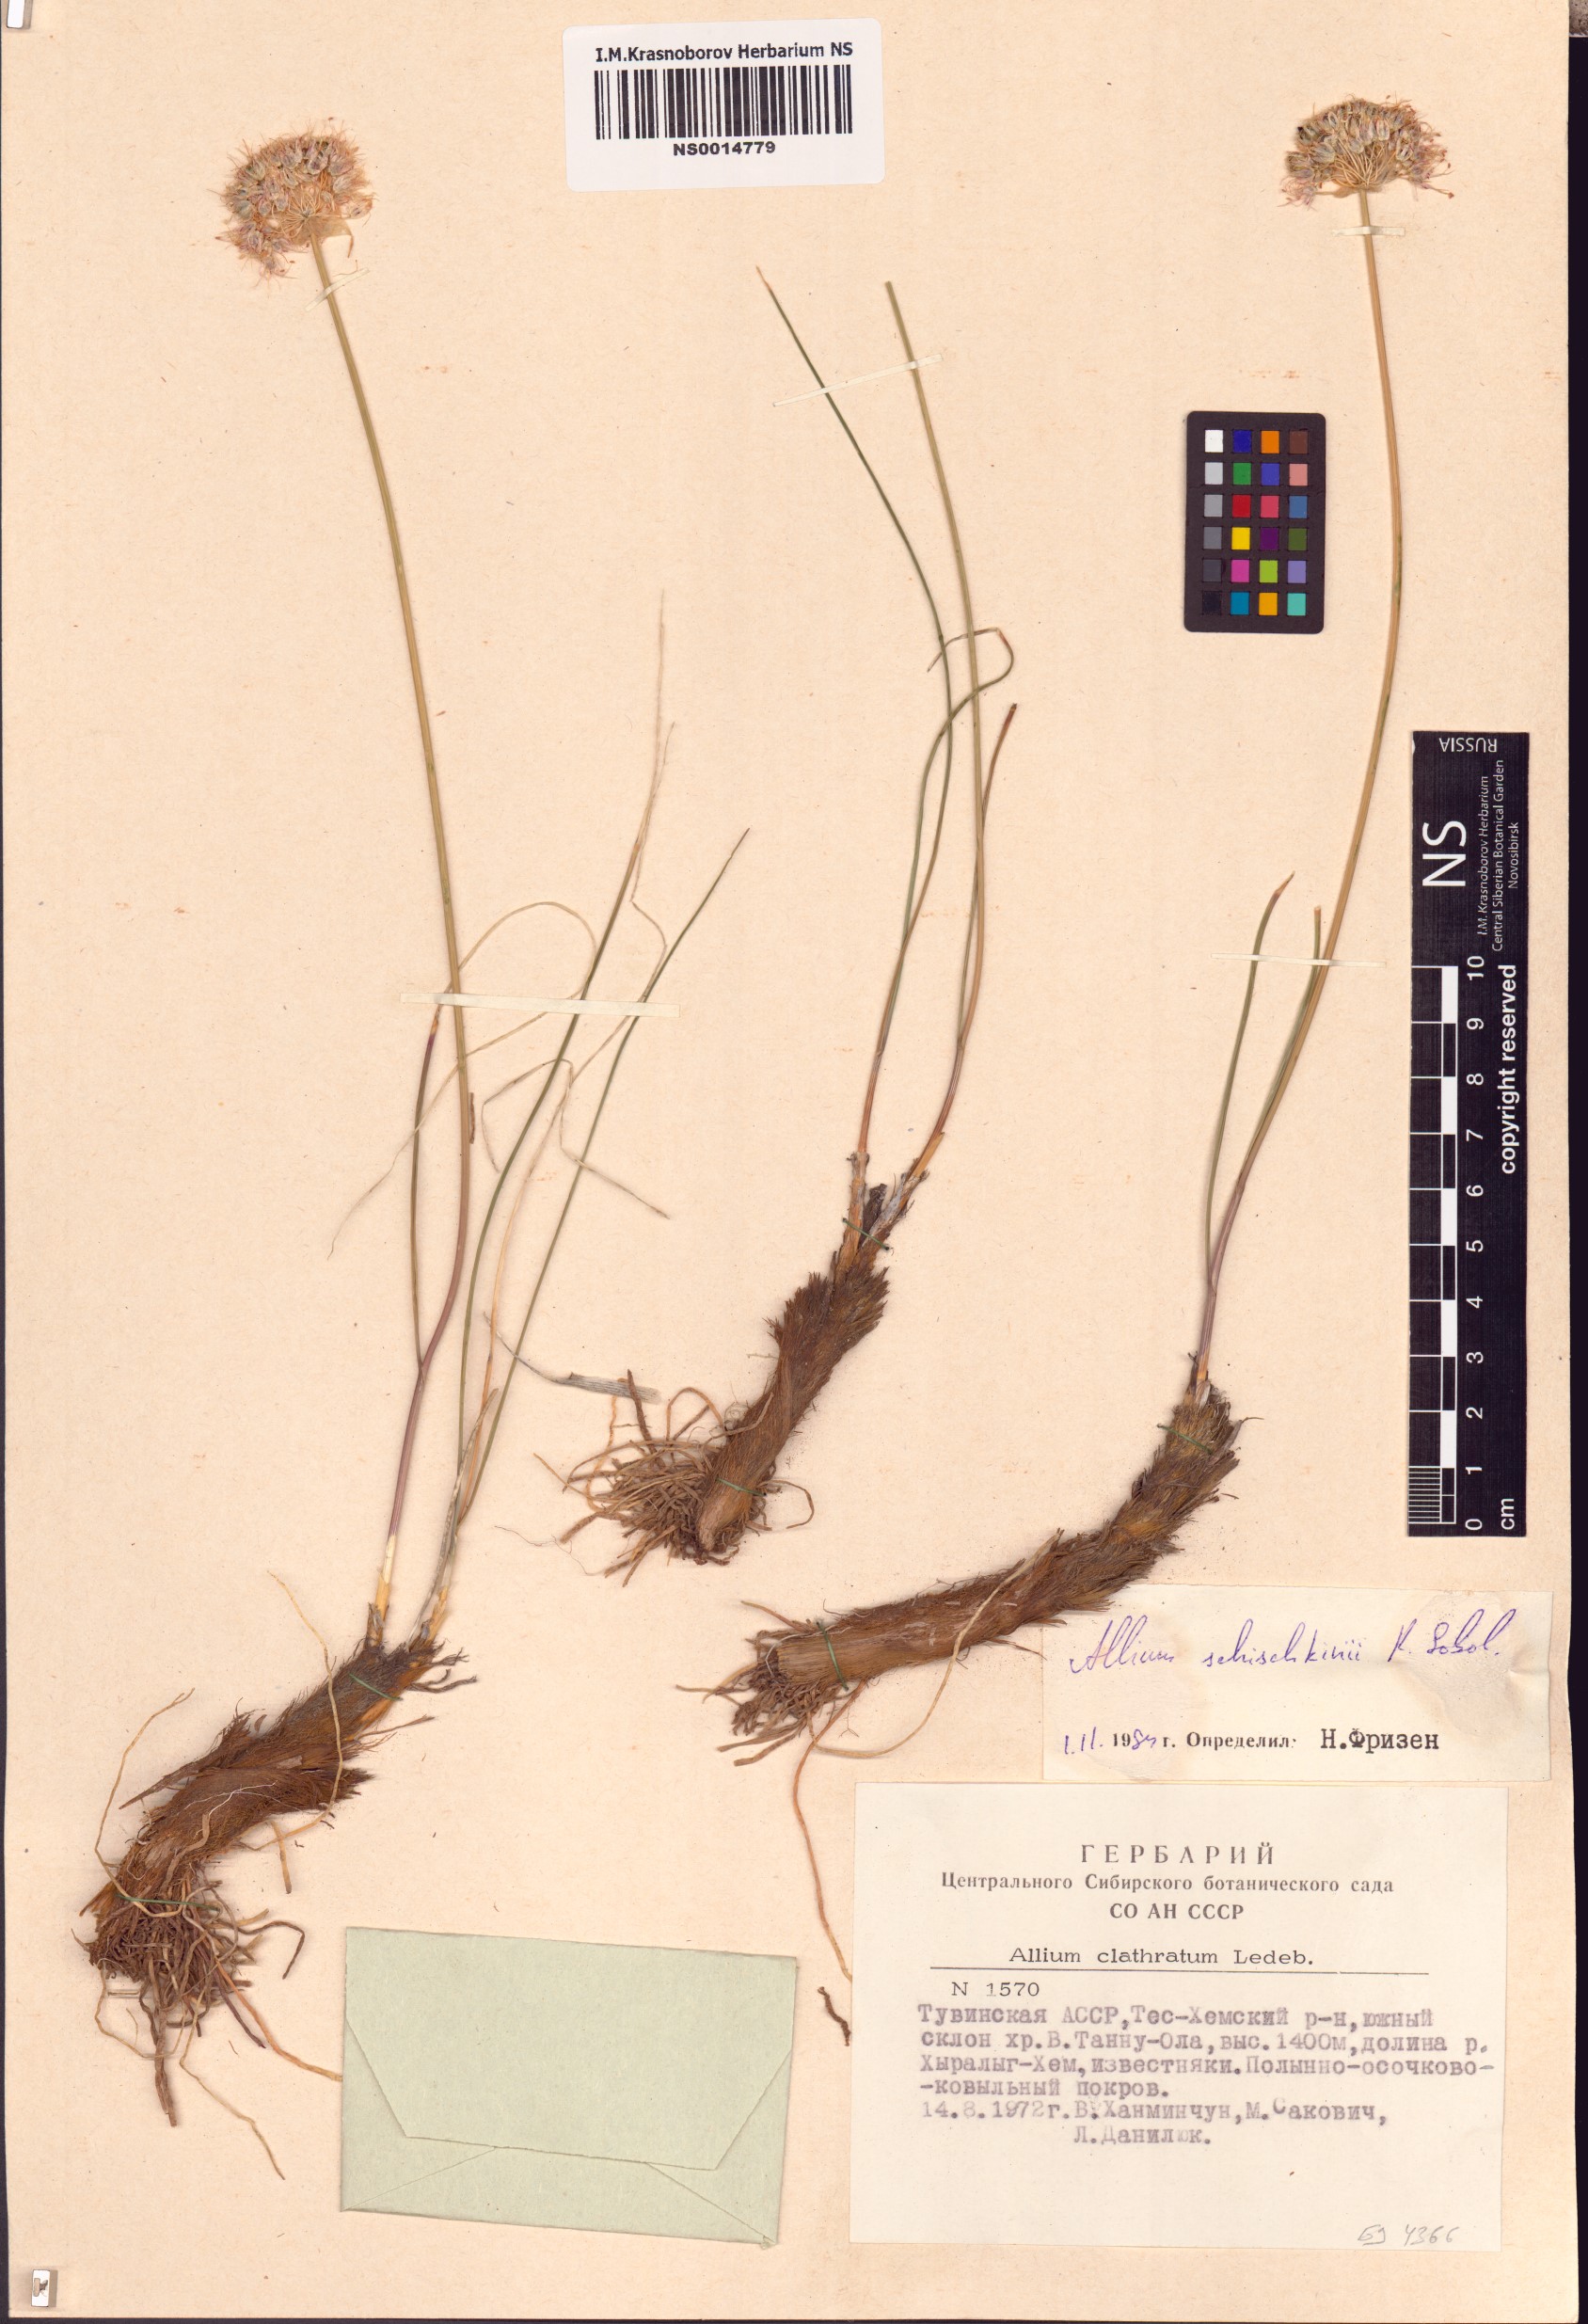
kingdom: Plantae
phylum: Tracheophyta
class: Liliopsida
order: Asparagales
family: Amaryllidaceae
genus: Allium
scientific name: Allium schischkinii
